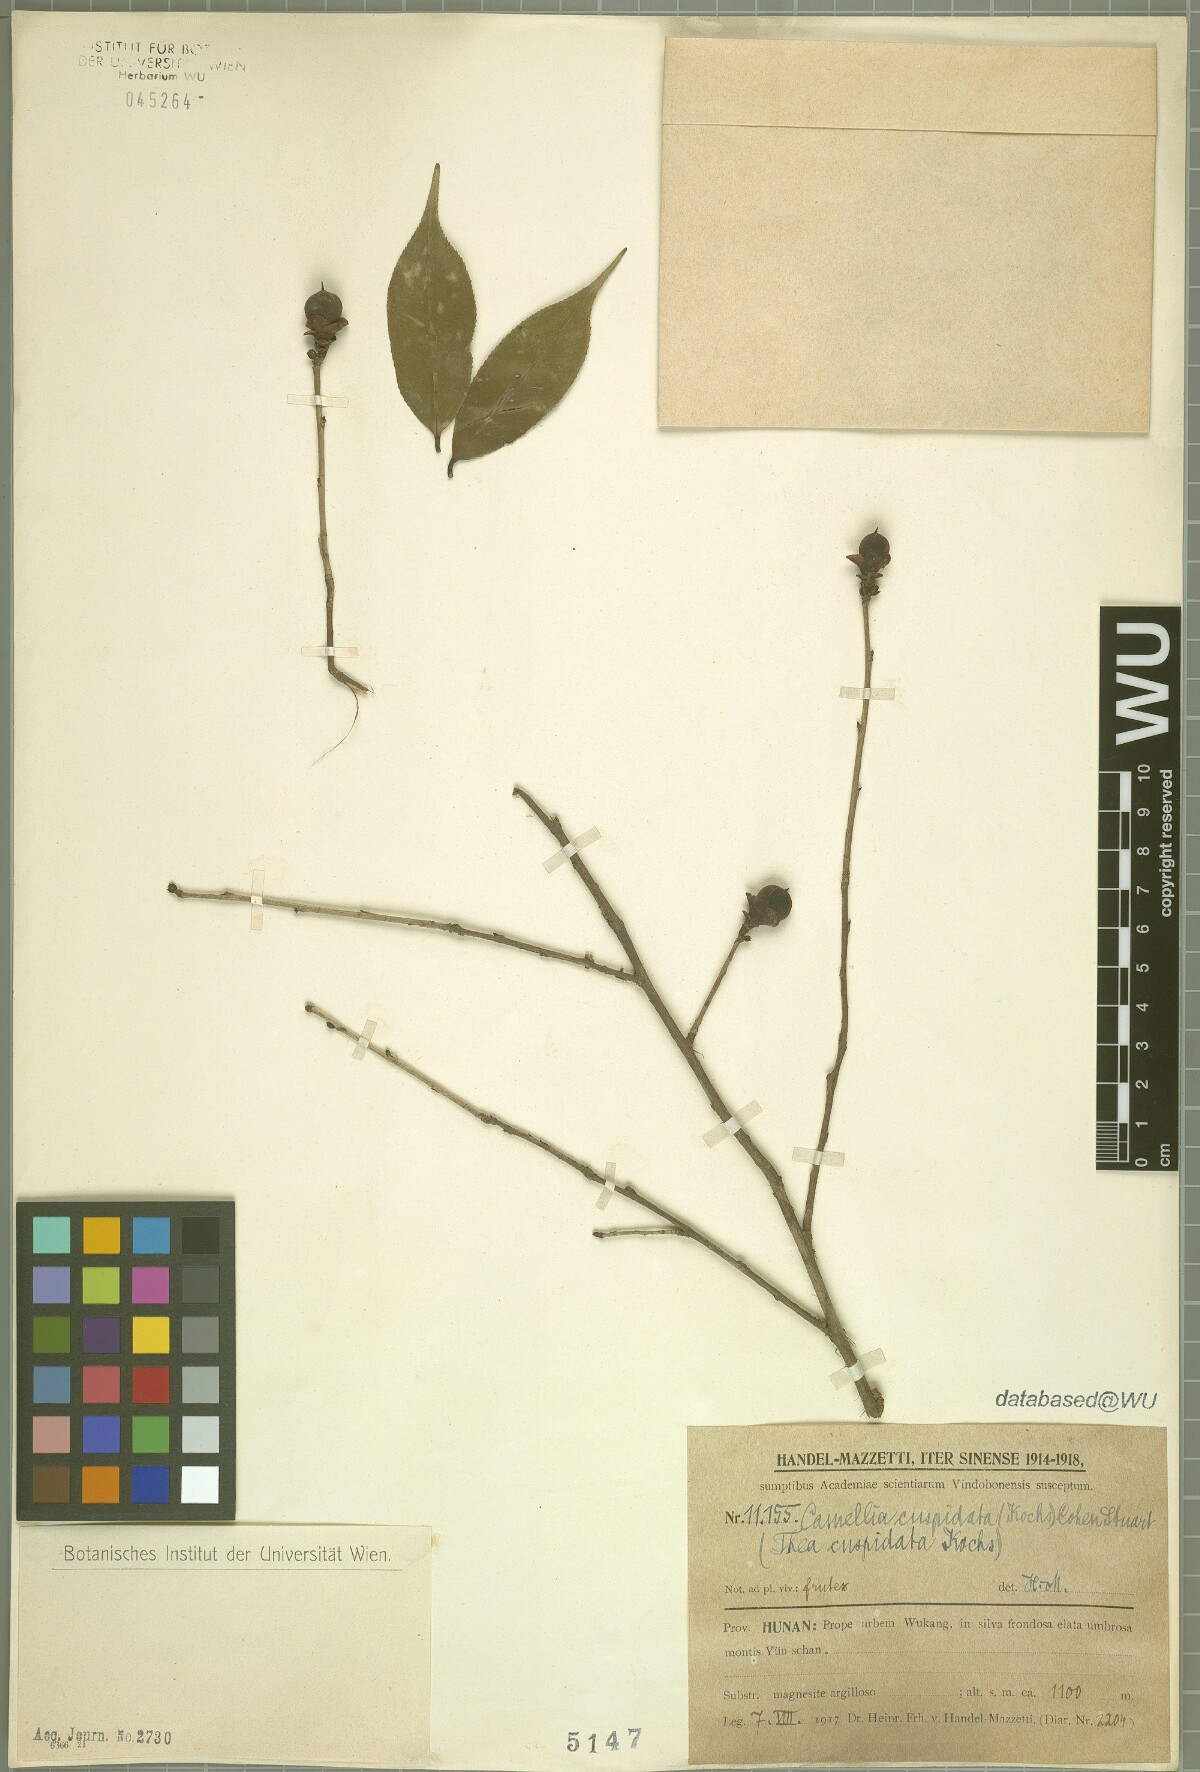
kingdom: Plantae
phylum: Tracheophyta
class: Magnoliopsida
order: Ericales
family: Theaceae
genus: Camellia
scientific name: Camellia cuspidata
